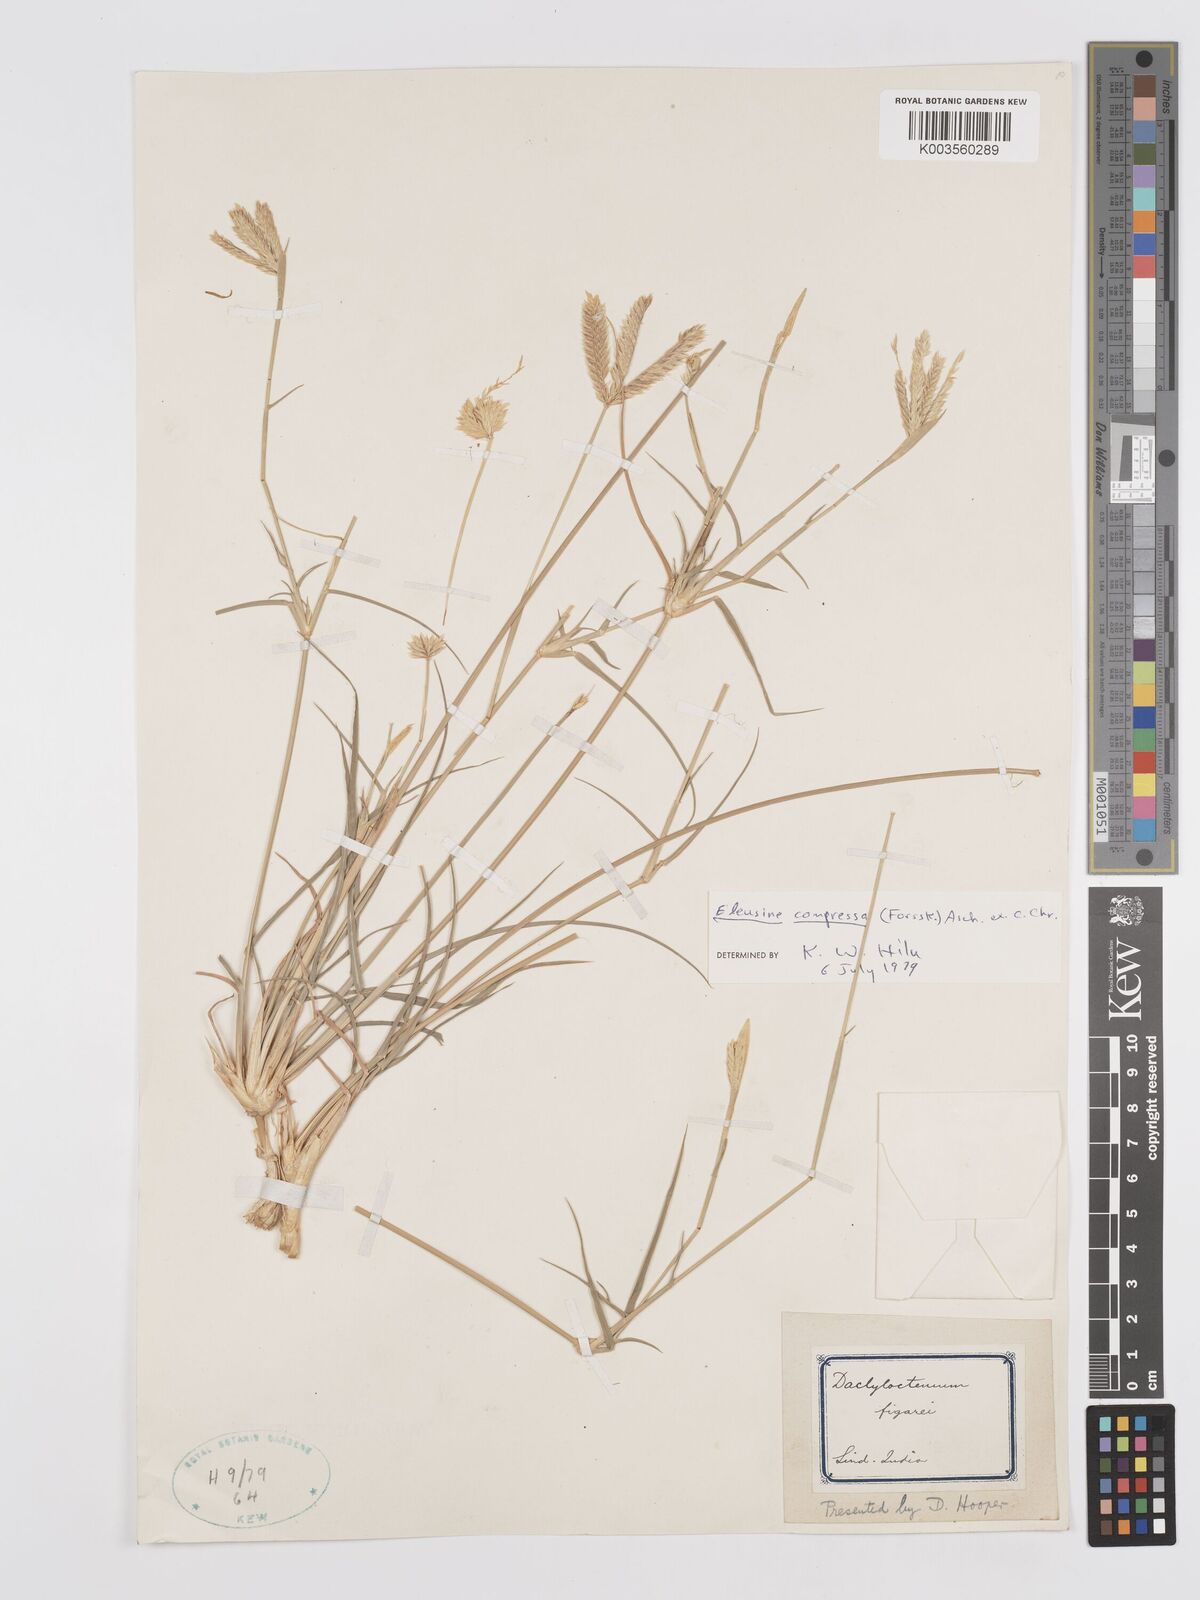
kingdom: Plantae
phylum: Tracheophyta
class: Liliopsida
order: Poales
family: Poaceae
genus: Chloris
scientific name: Chloris flagellifera
